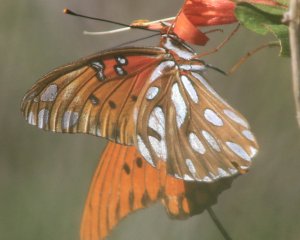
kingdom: Animalia
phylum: Arthropoda
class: Insecta
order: Lepidoptera
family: Nymphalidae
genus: Dione
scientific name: Dione vanillae
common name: Gulf Fritillary
